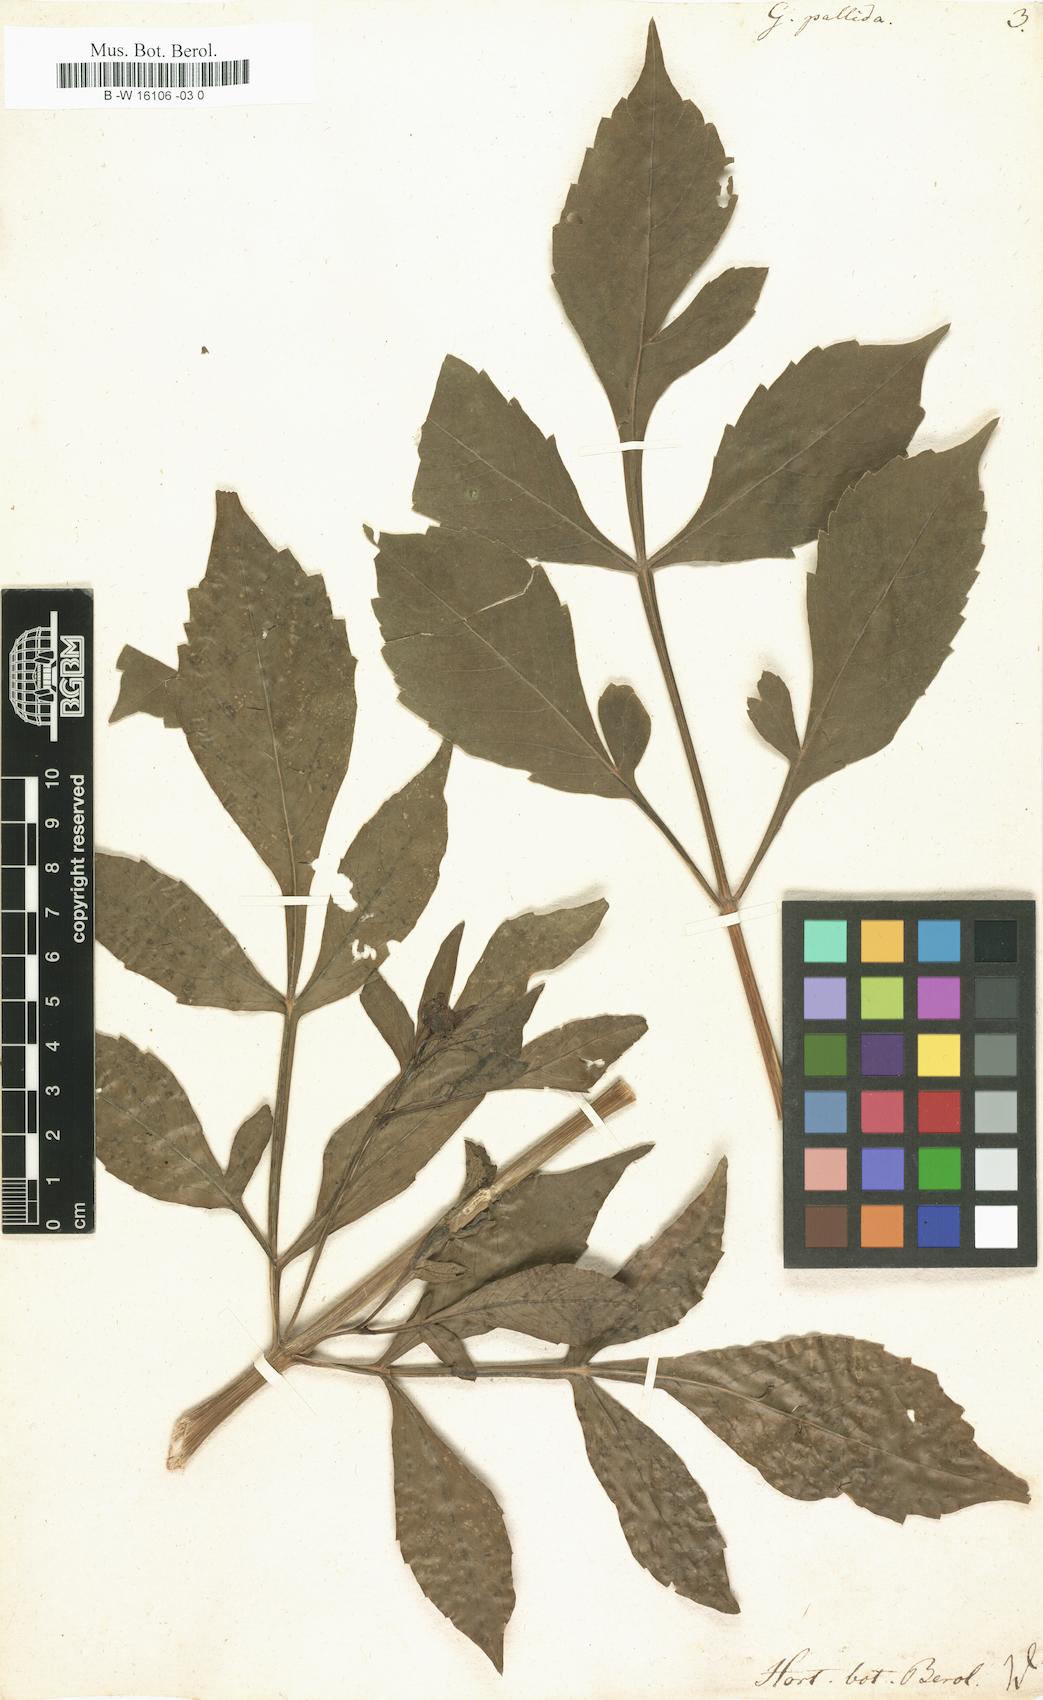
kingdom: Plantae
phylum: Tracheophyta
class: Magnoliopsida
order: Asterales
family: Asteraceae
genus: Dahlia
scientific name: Dahlia
